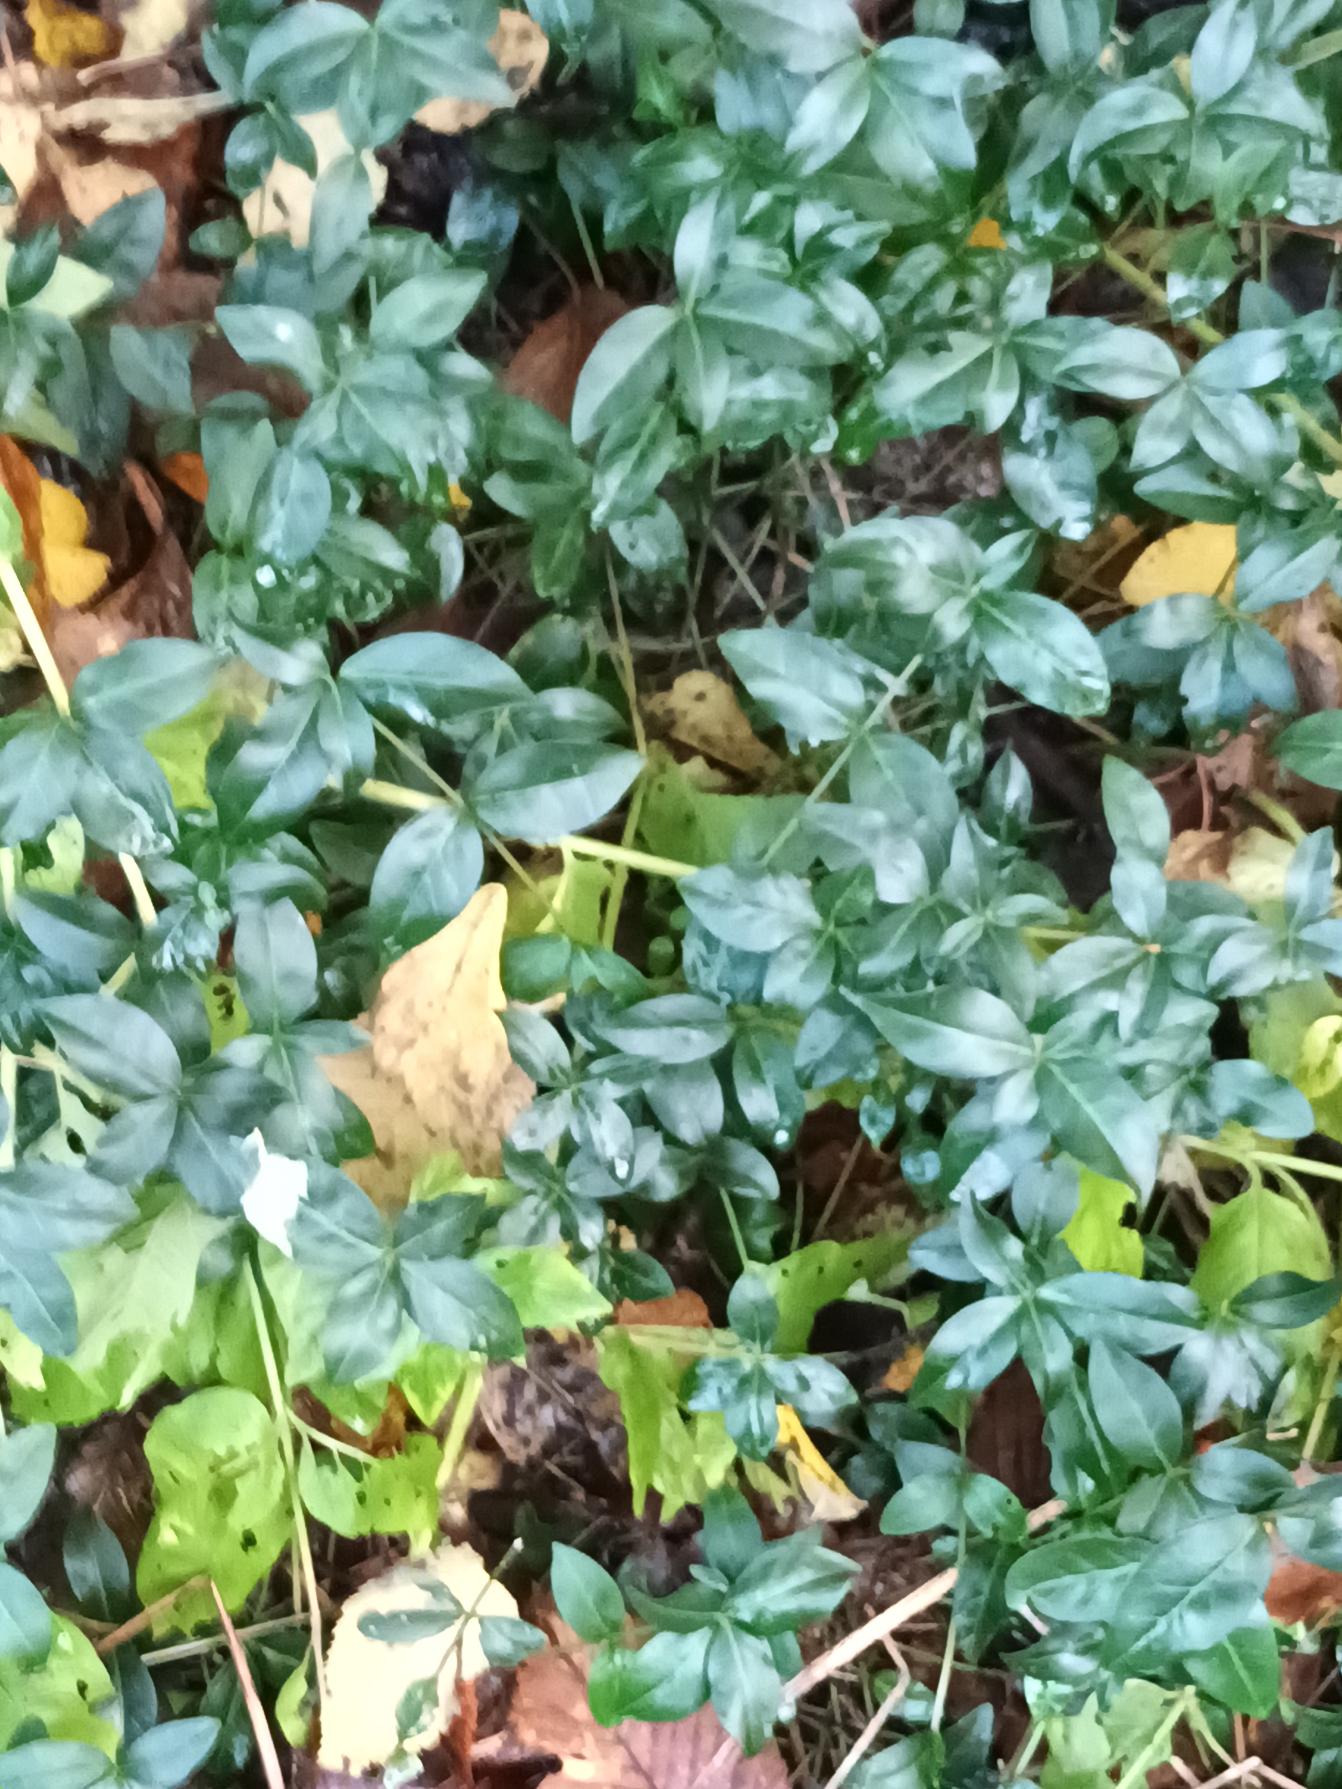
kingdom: Plantae
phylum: Tracheophyta
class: Magnoliopsida
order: Gentianales
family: Apocynaceae
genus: Vinca
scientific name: Vinca minor
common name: Liden singrøn
